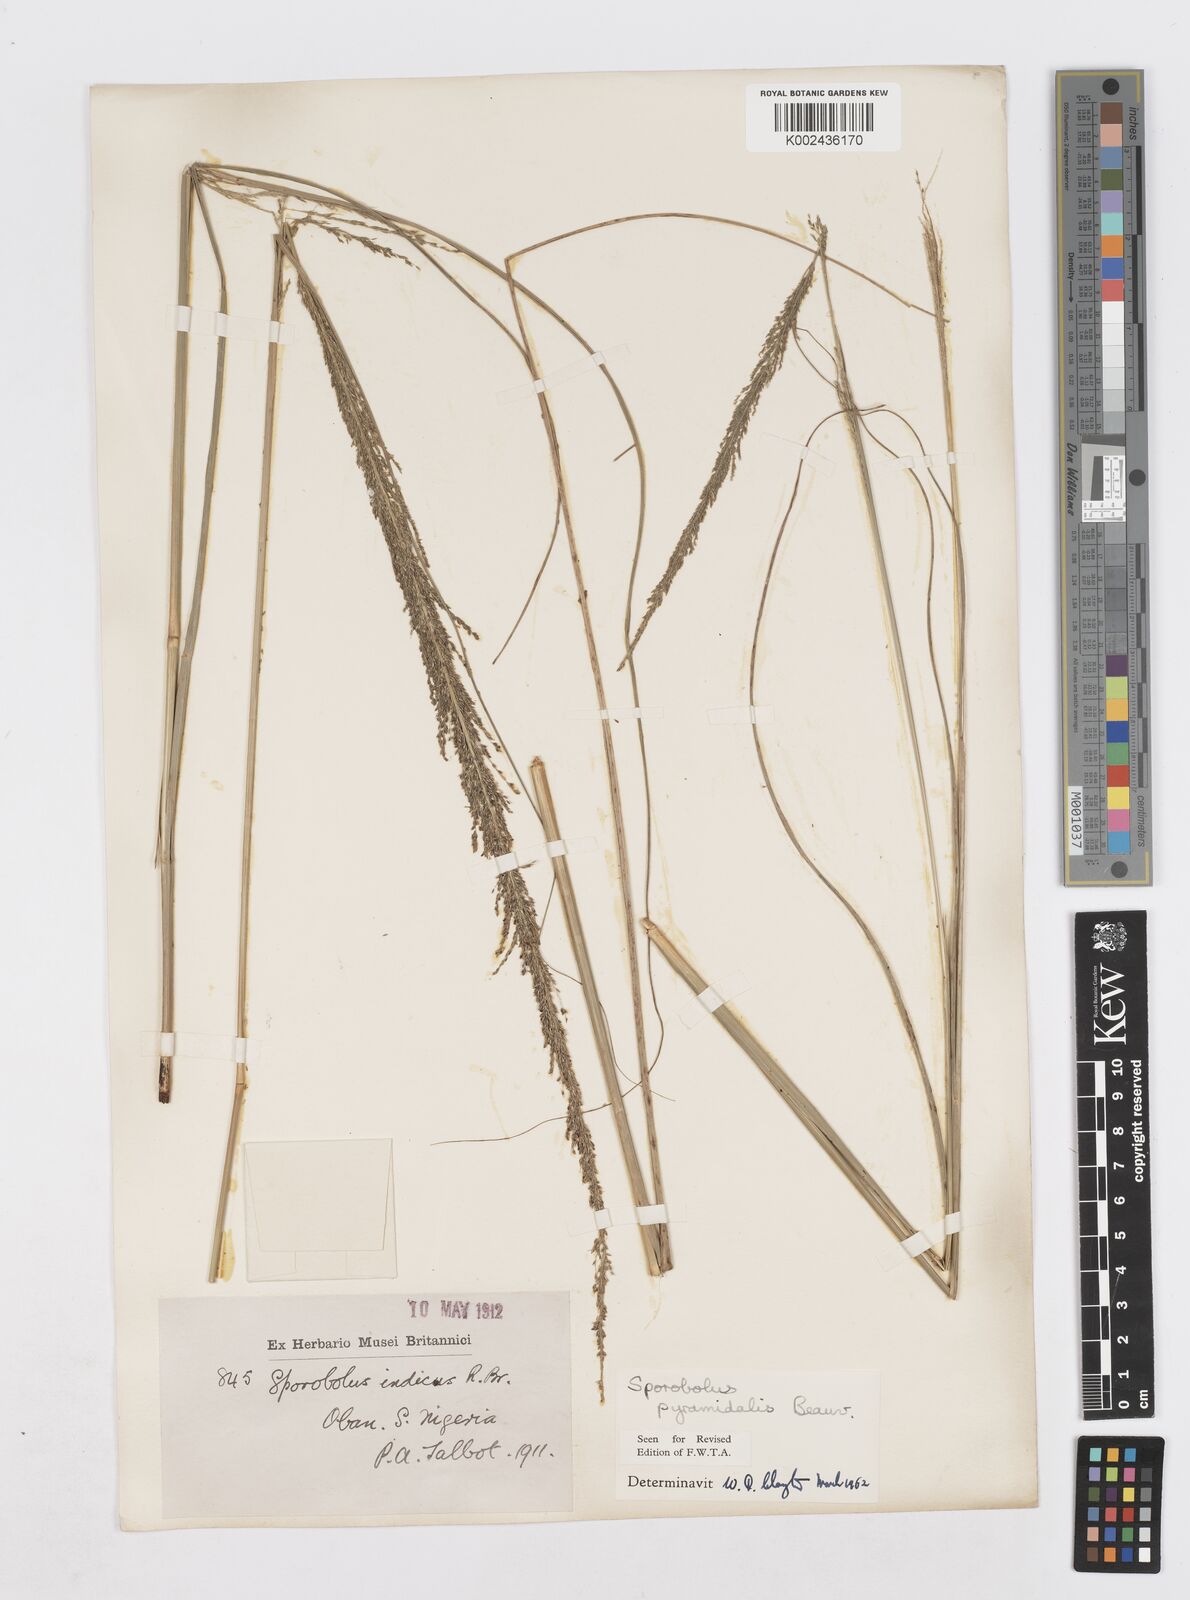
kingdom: Plantae
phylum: Tracheophyta
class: Liliopsida
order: Poales
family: Poaceae
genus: Sporobolus
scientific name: Sporobolus pyramidalis
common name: West indian dropseed
